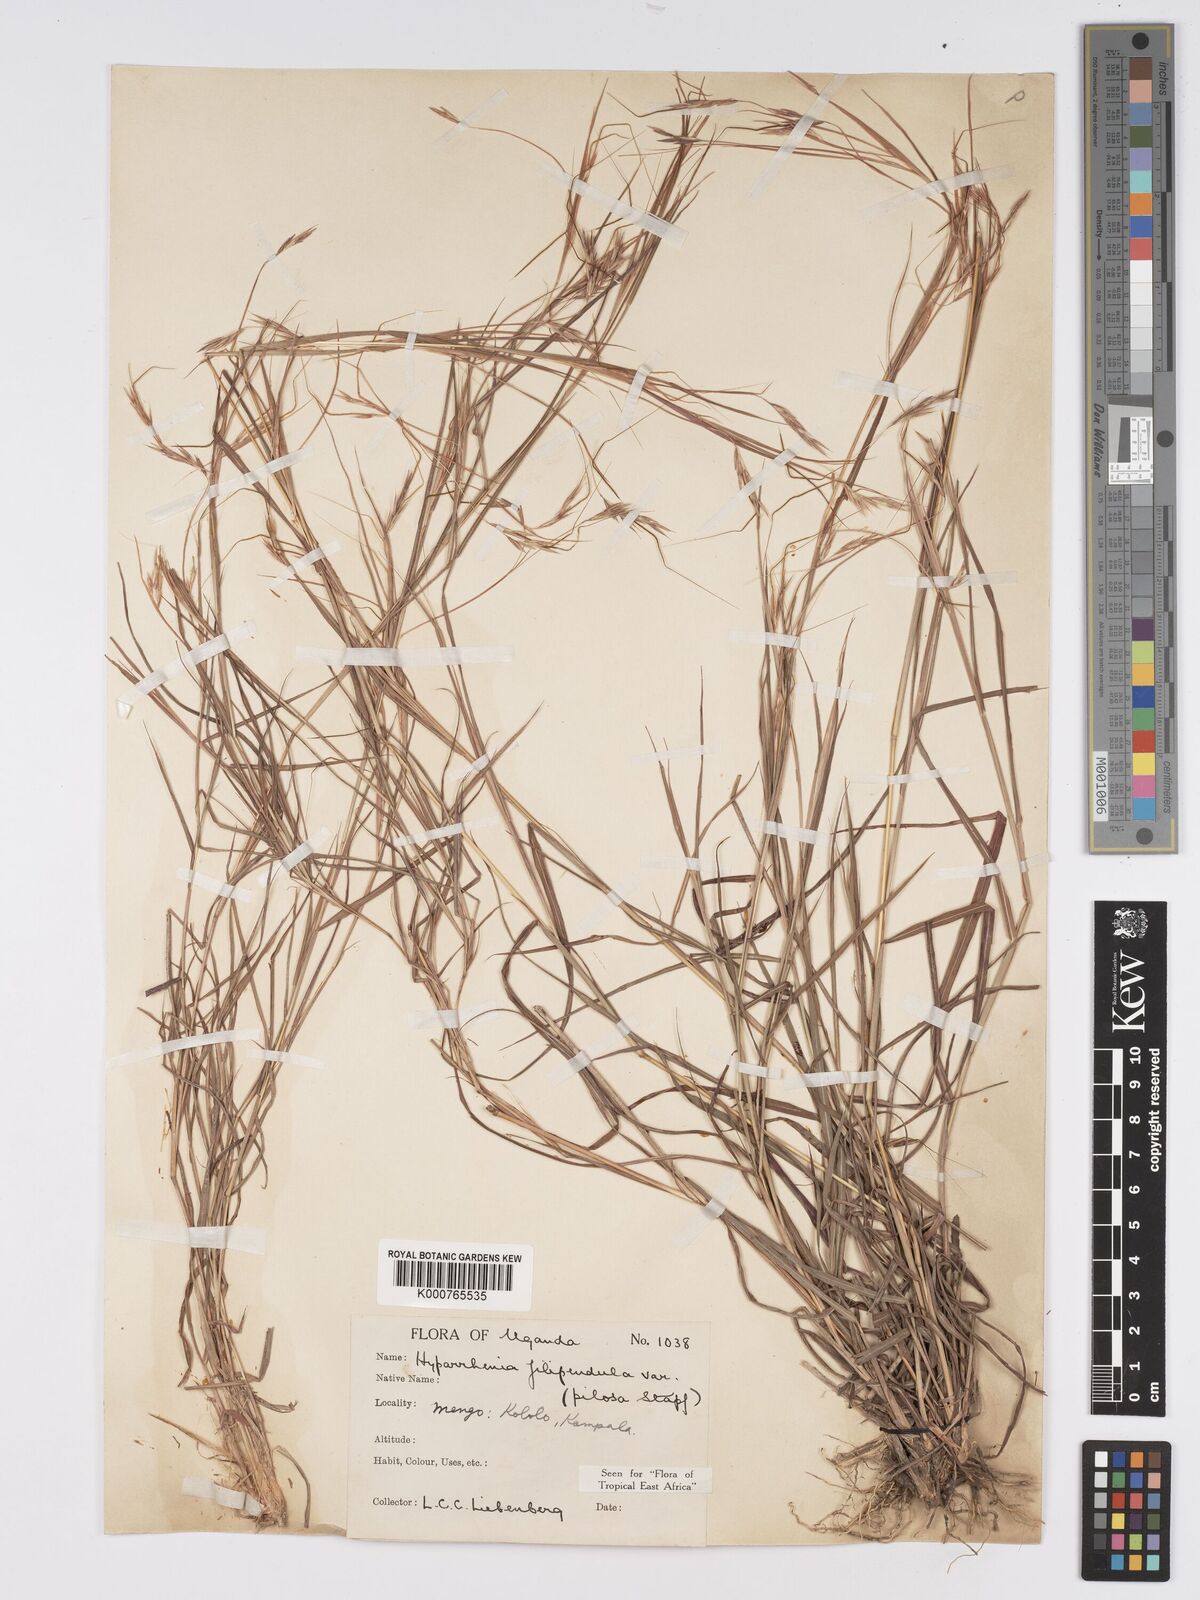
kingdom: Plantae
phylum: Tracheophyta
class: Liliopsida
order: Poales
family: Poaceae
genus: Hyparrhenia
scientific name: Hyparrhenia filipendula
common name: Tambookie grass
